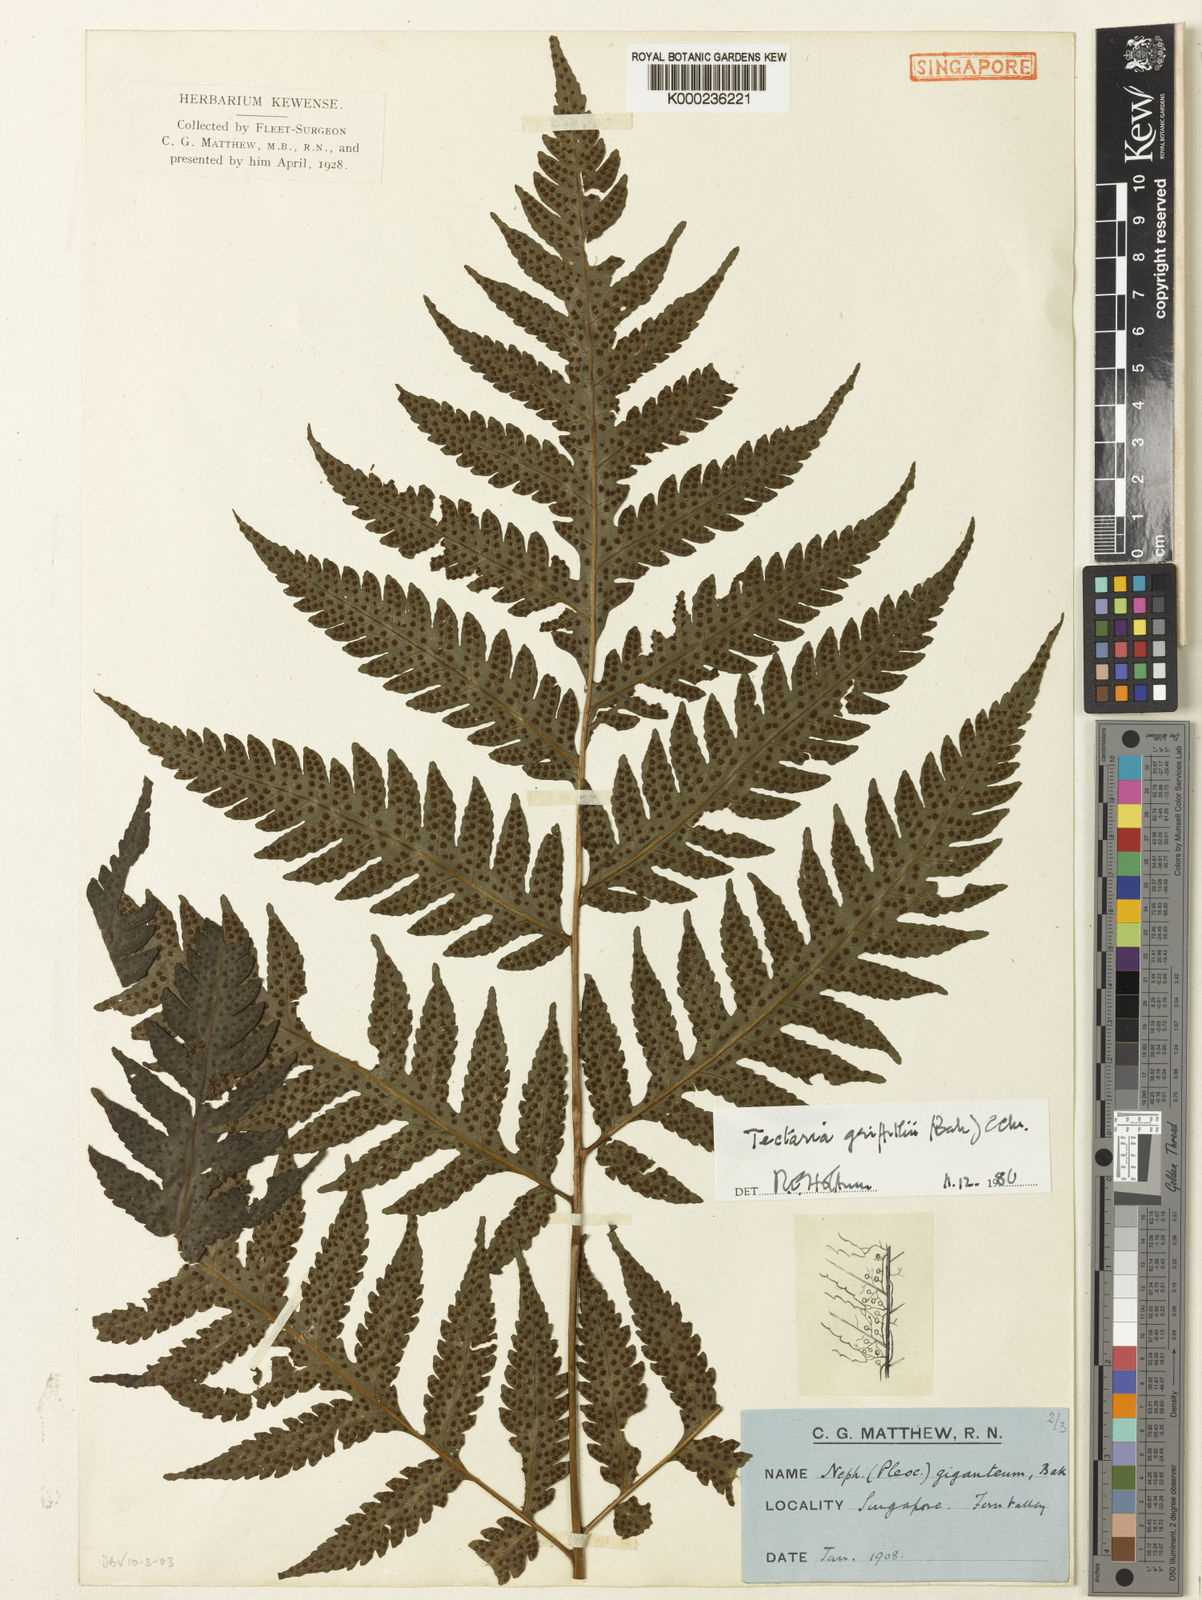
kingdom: Plantae
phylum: Tracheophyta
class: Polypodiopsida
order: Polypodiales
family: Tectariaceae
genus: Tectaria
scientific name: Tectaria multicaudata
